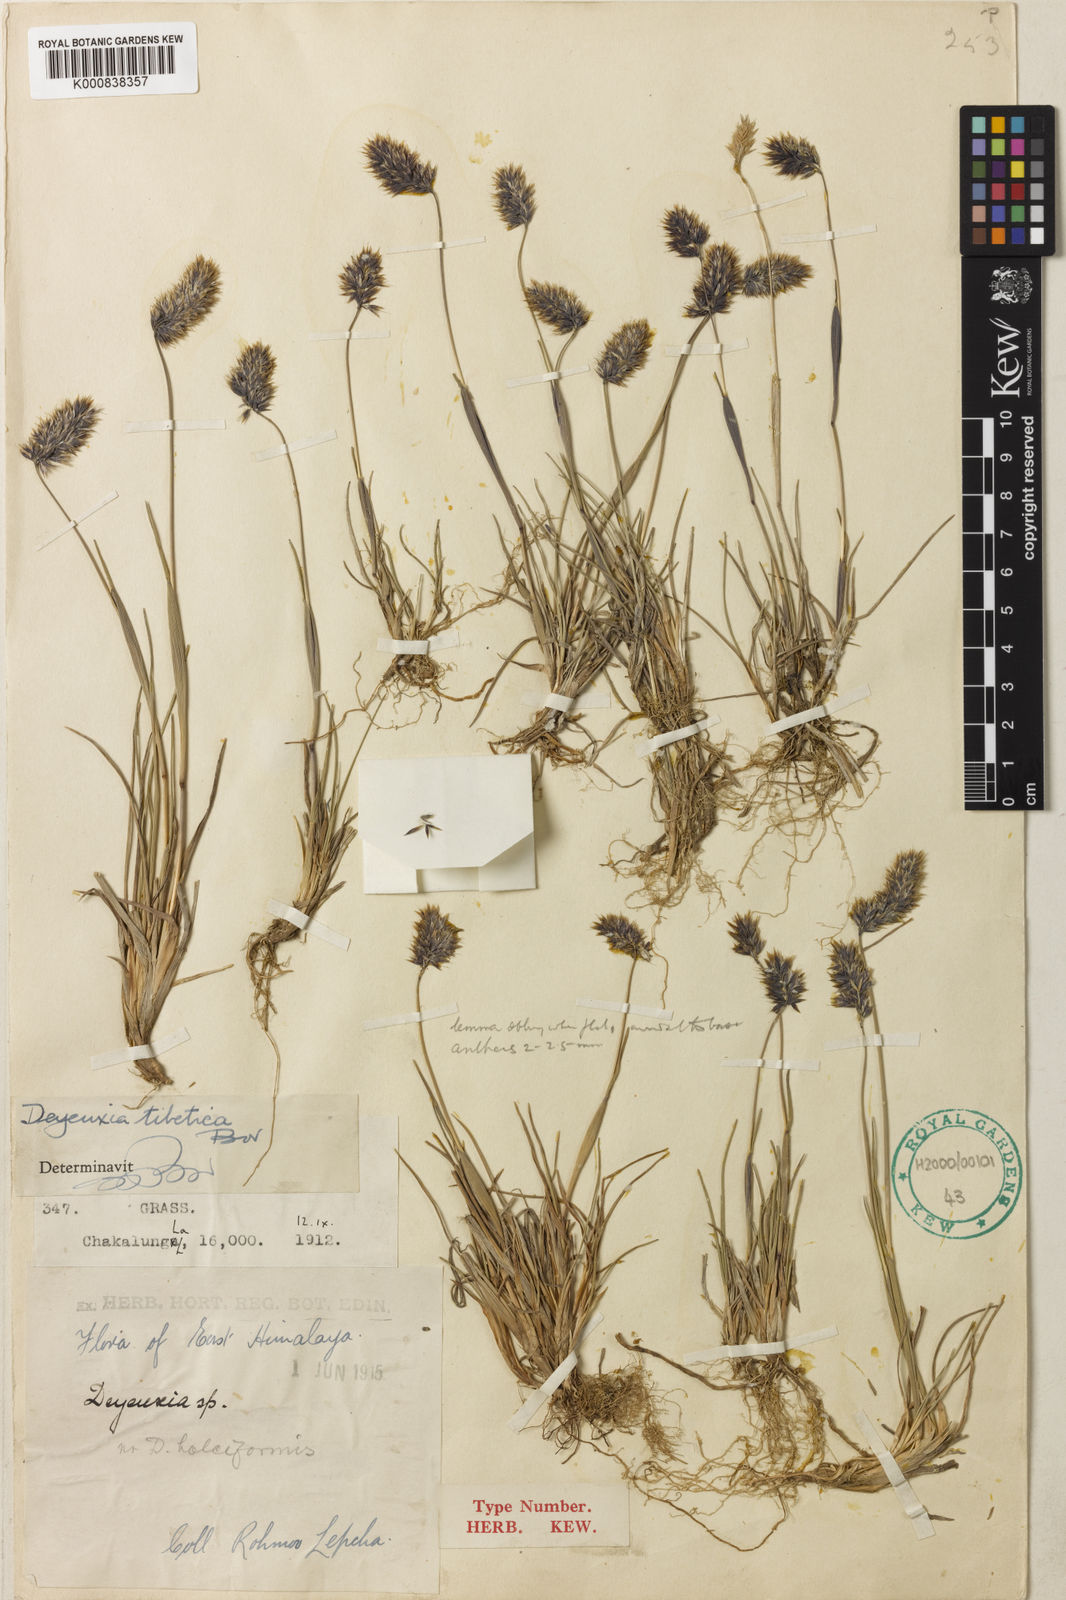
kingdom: Plantae
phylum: Tracheophyta
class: Liliopsida
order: Poales
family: Poaceae
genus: Calamagrostis
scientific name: Calamagrostis tibetica
